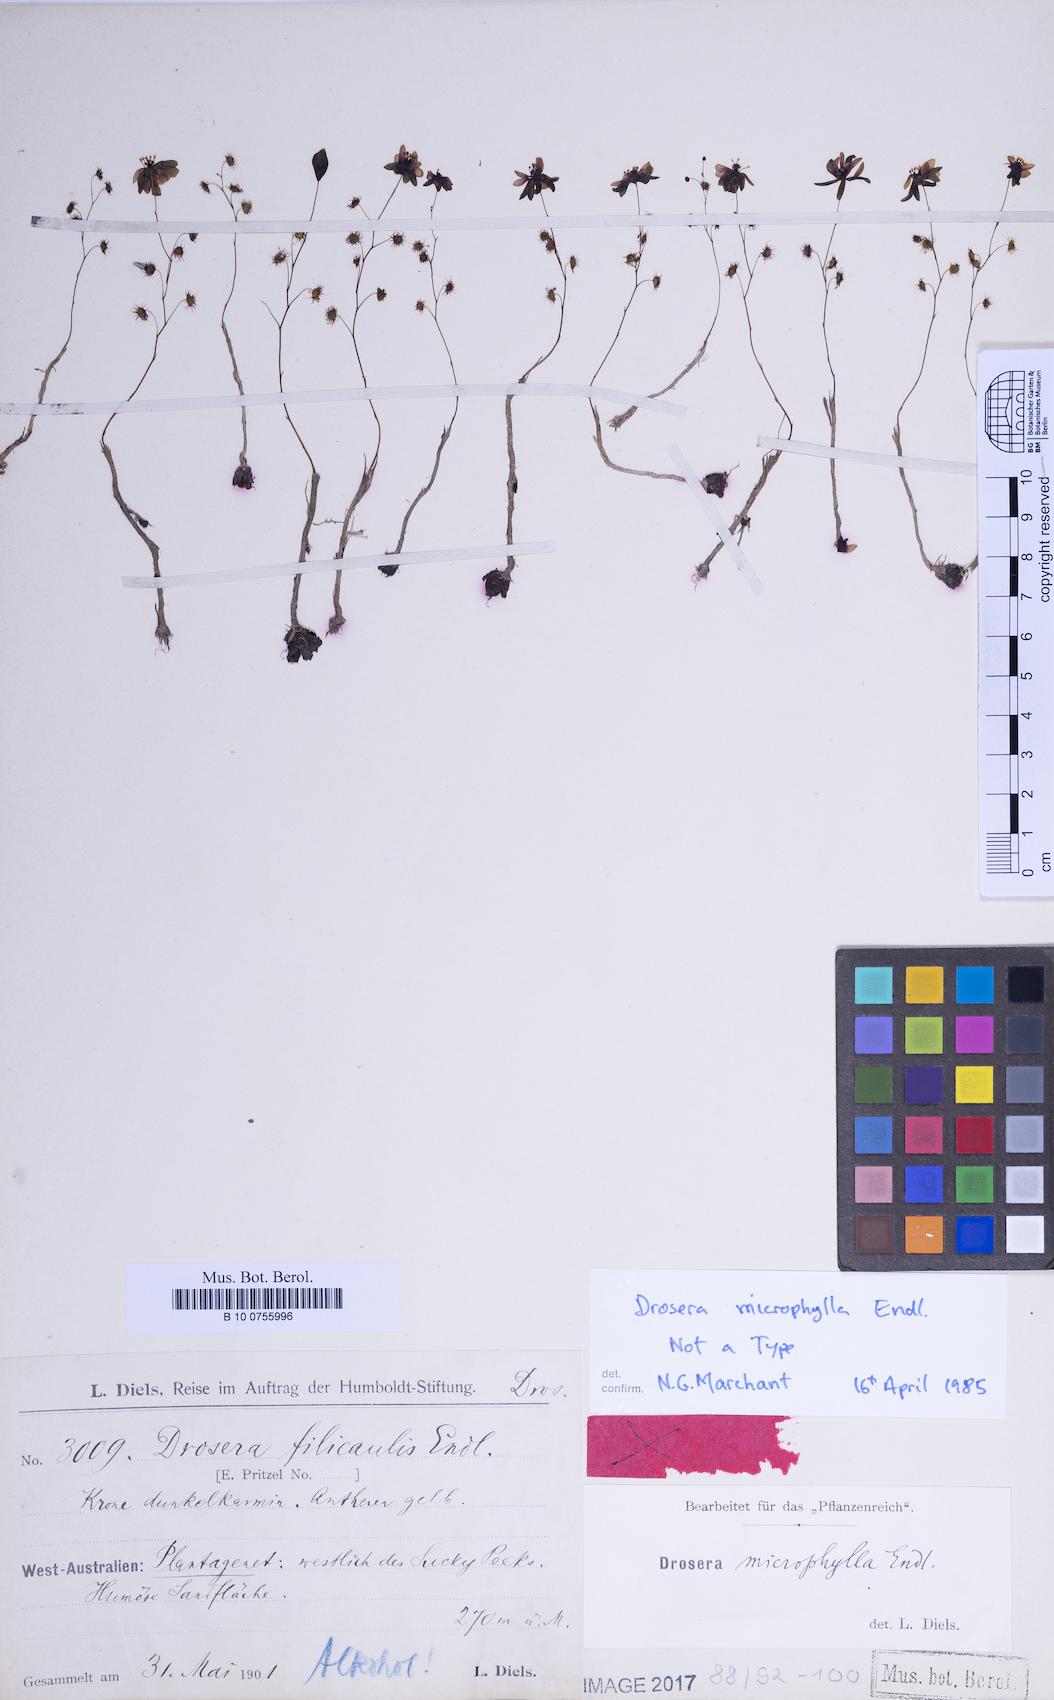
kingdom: Plantae
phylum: Tracheophyta
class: Magnoliopsida
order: Caryophyllales
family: Droseraceae
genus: Drosera
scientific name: Drosera microphylla
